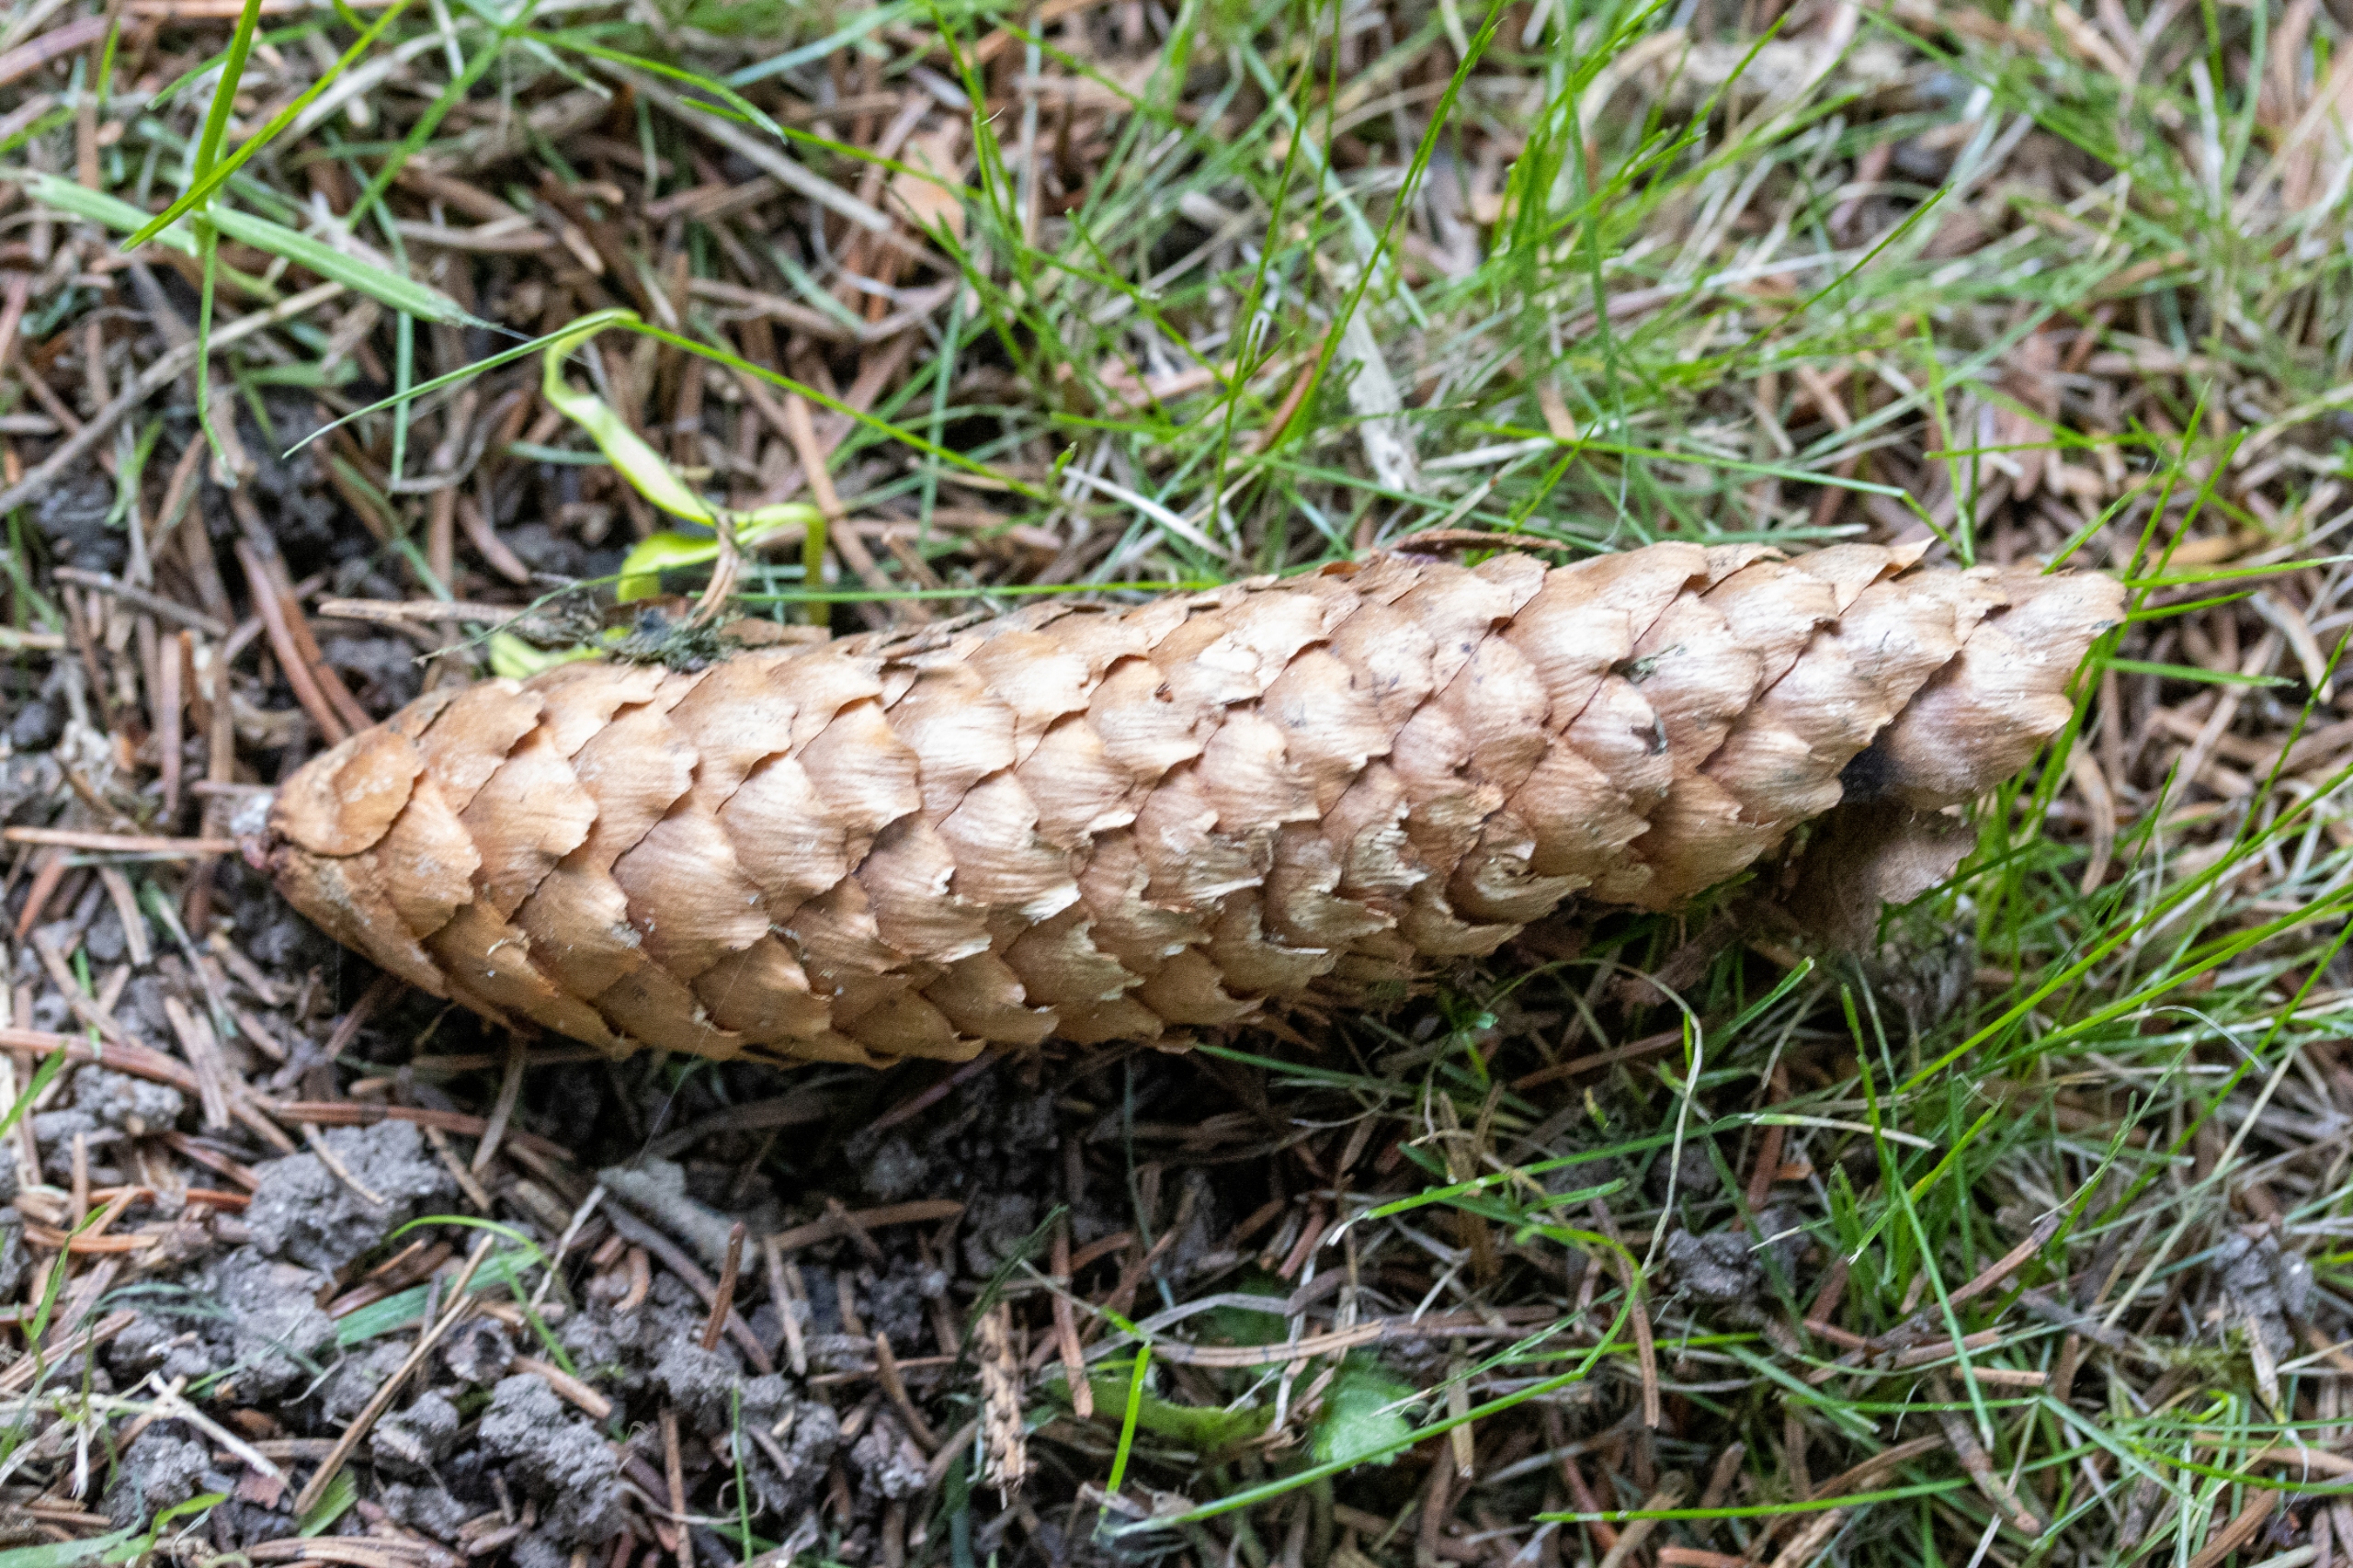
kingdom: Plantae
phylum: Tracheophyta
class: Pinopsida
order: Pinales
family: Pinaceae
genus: Picea
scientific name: Picea abies
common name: Rød-gran
